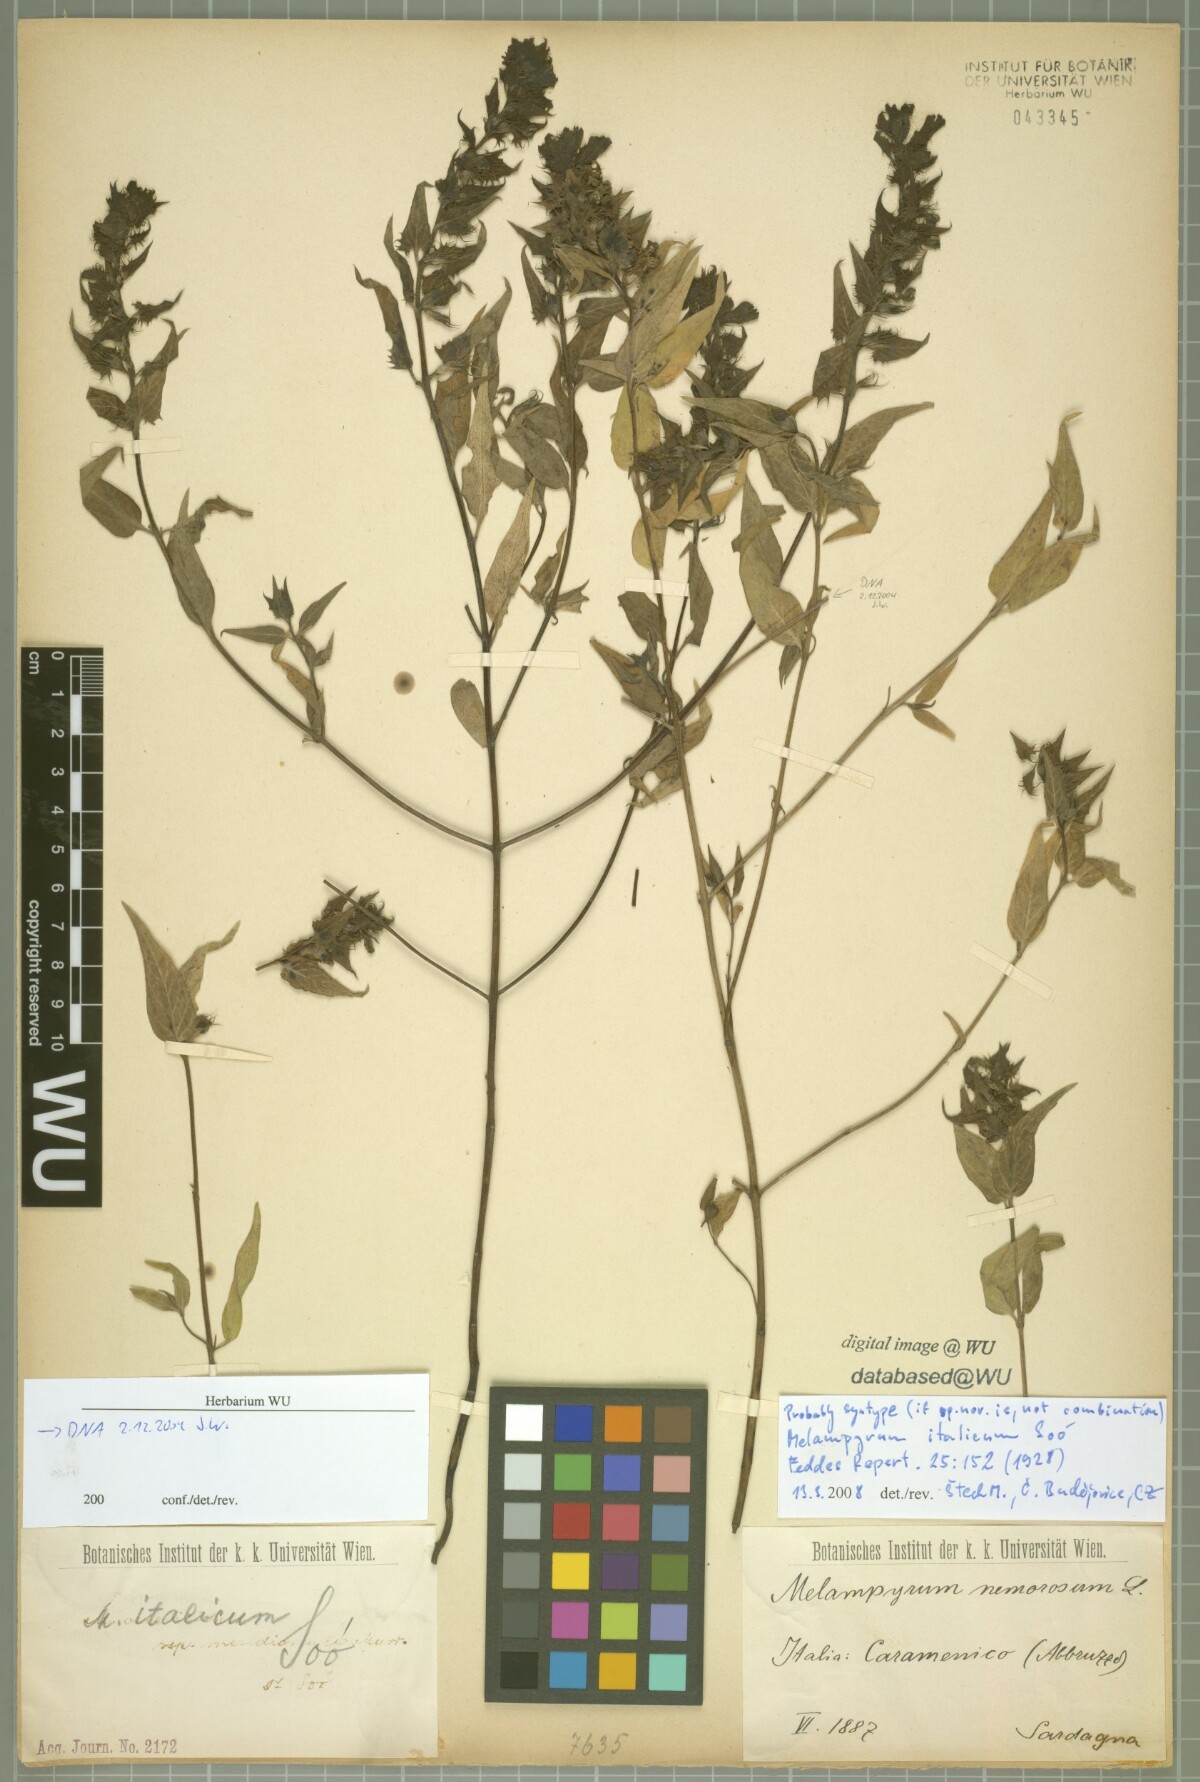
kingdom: Plantae
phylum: Tracheophyta
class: Magnoliopsida
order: Lamiales
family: Orobanchaceae
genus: Melampyrum
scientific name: Melampyrum italicum
